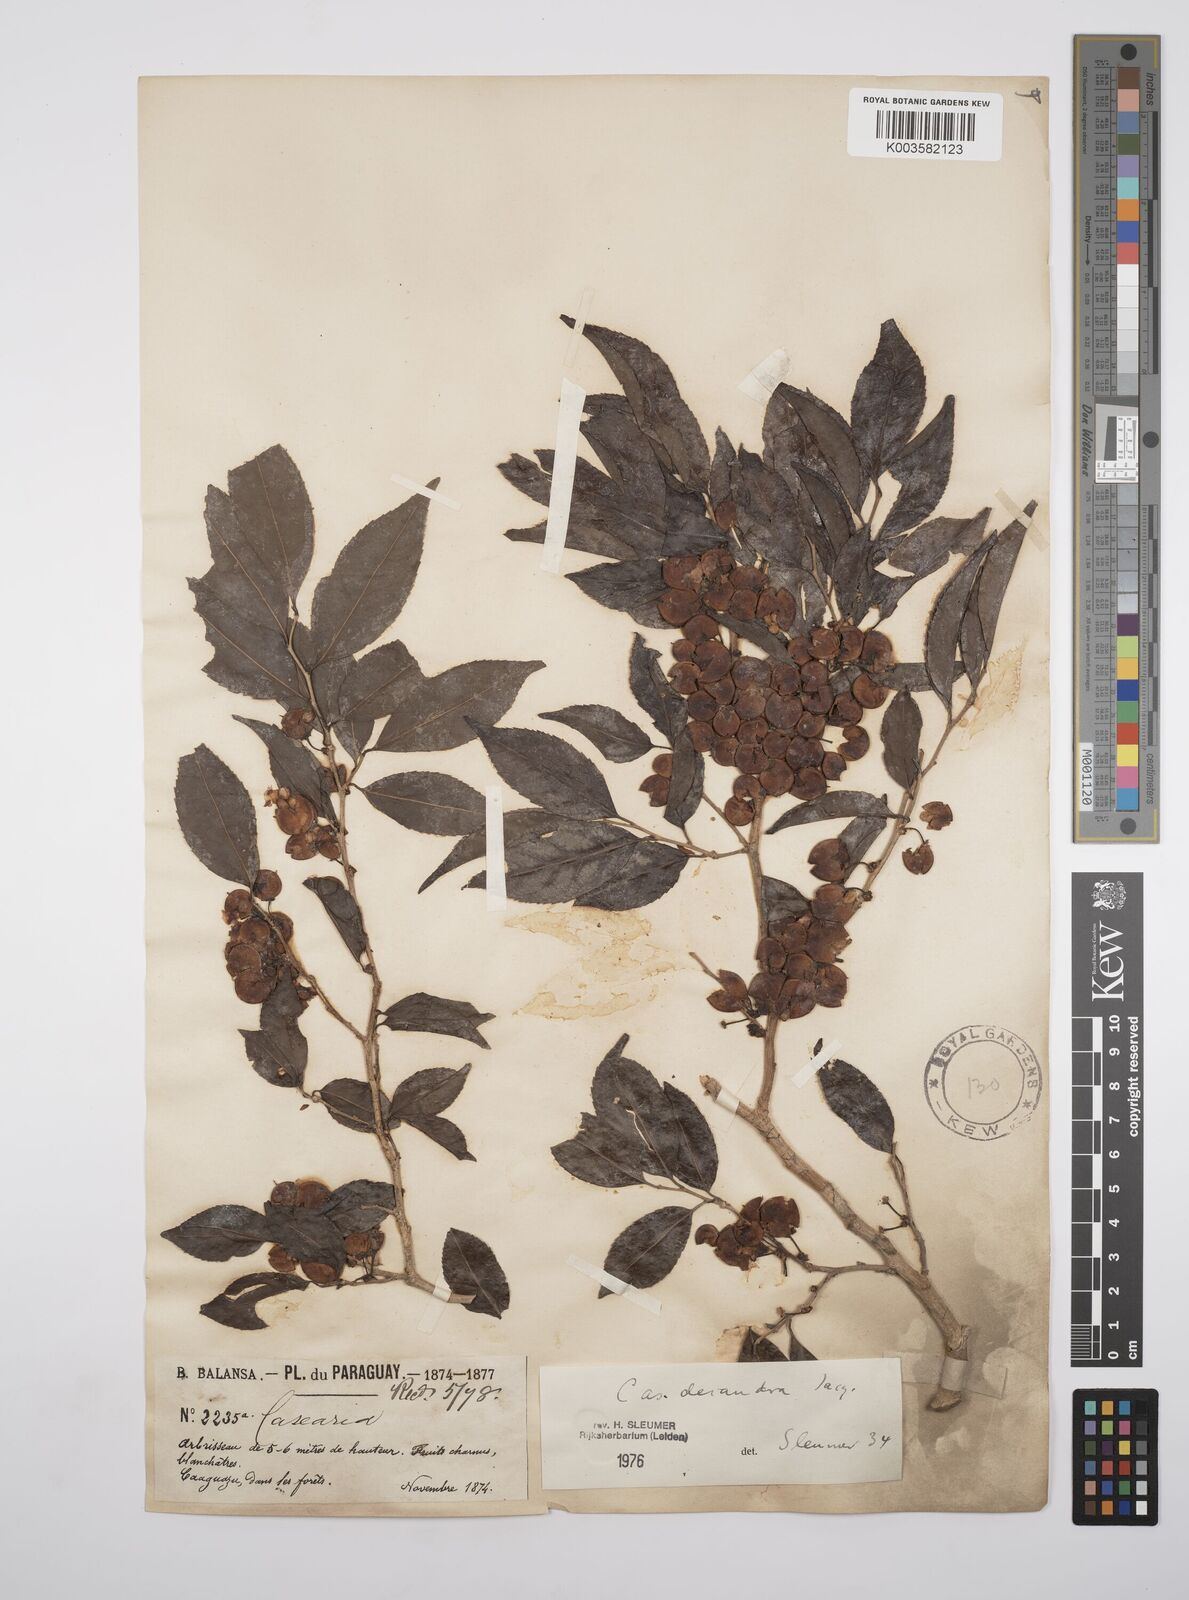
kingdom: Plantae
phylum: Tracheophyta
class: Magnoliopsida
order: Malpighiales
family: Salicaceae
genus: Casearia
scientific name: Casearia
